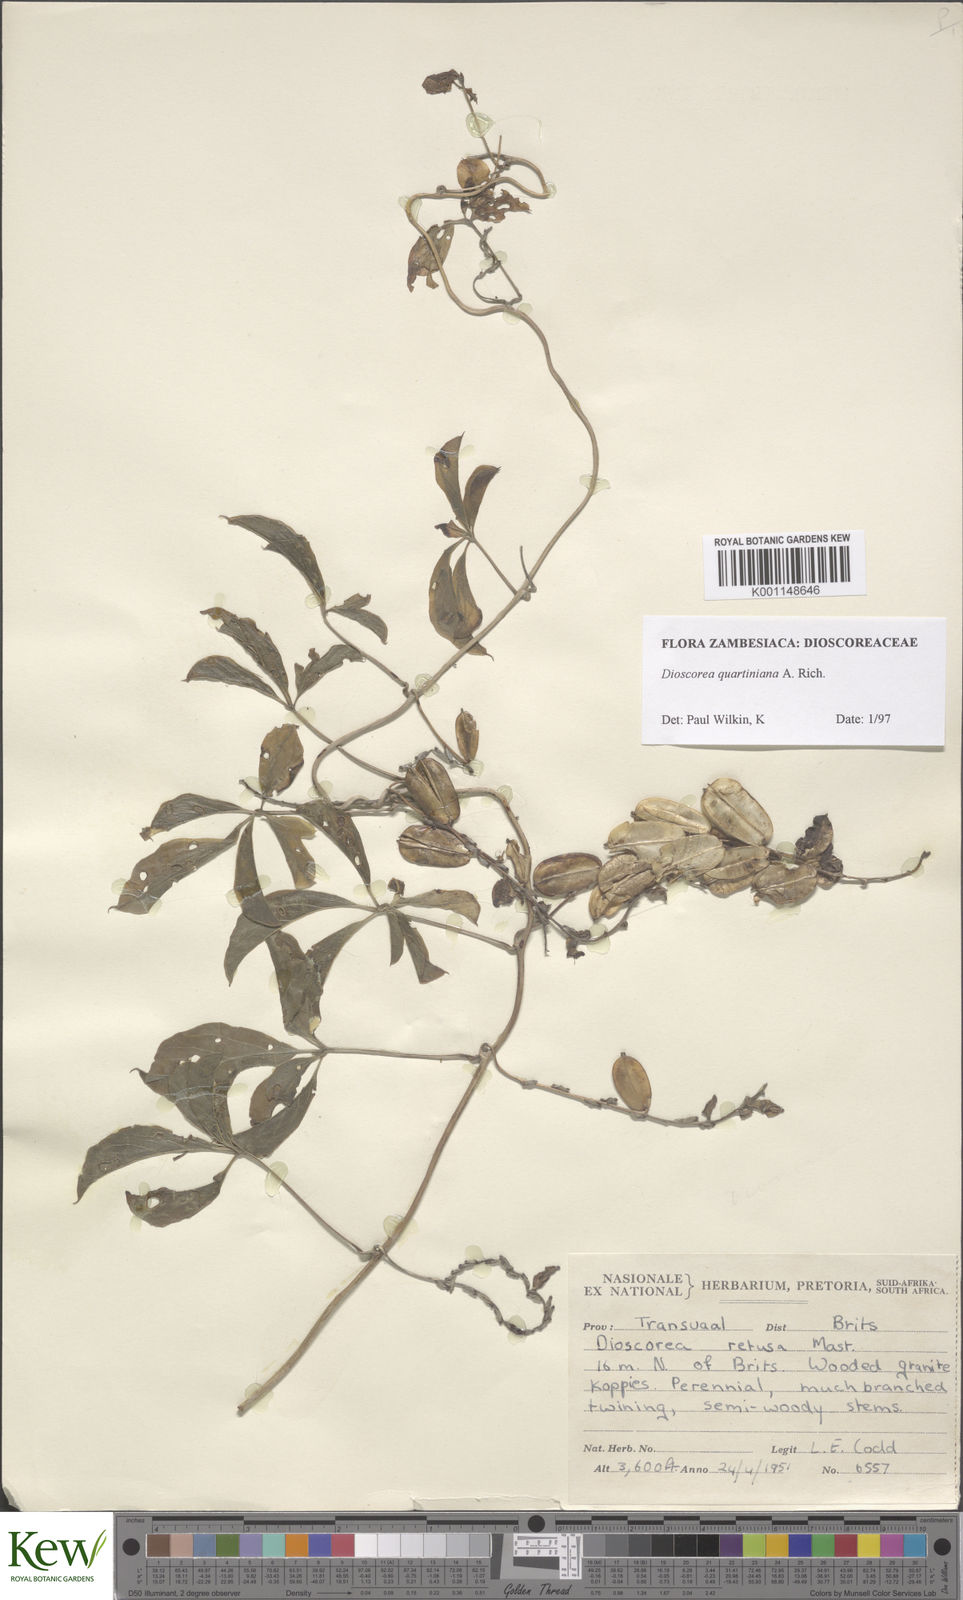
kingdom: Plantae
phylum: Tracheophyta
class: Liliopsida
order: Dioscoreales
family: Dioscoreaceae
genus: Dioscorea
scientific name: Dioscorea quartiniana
